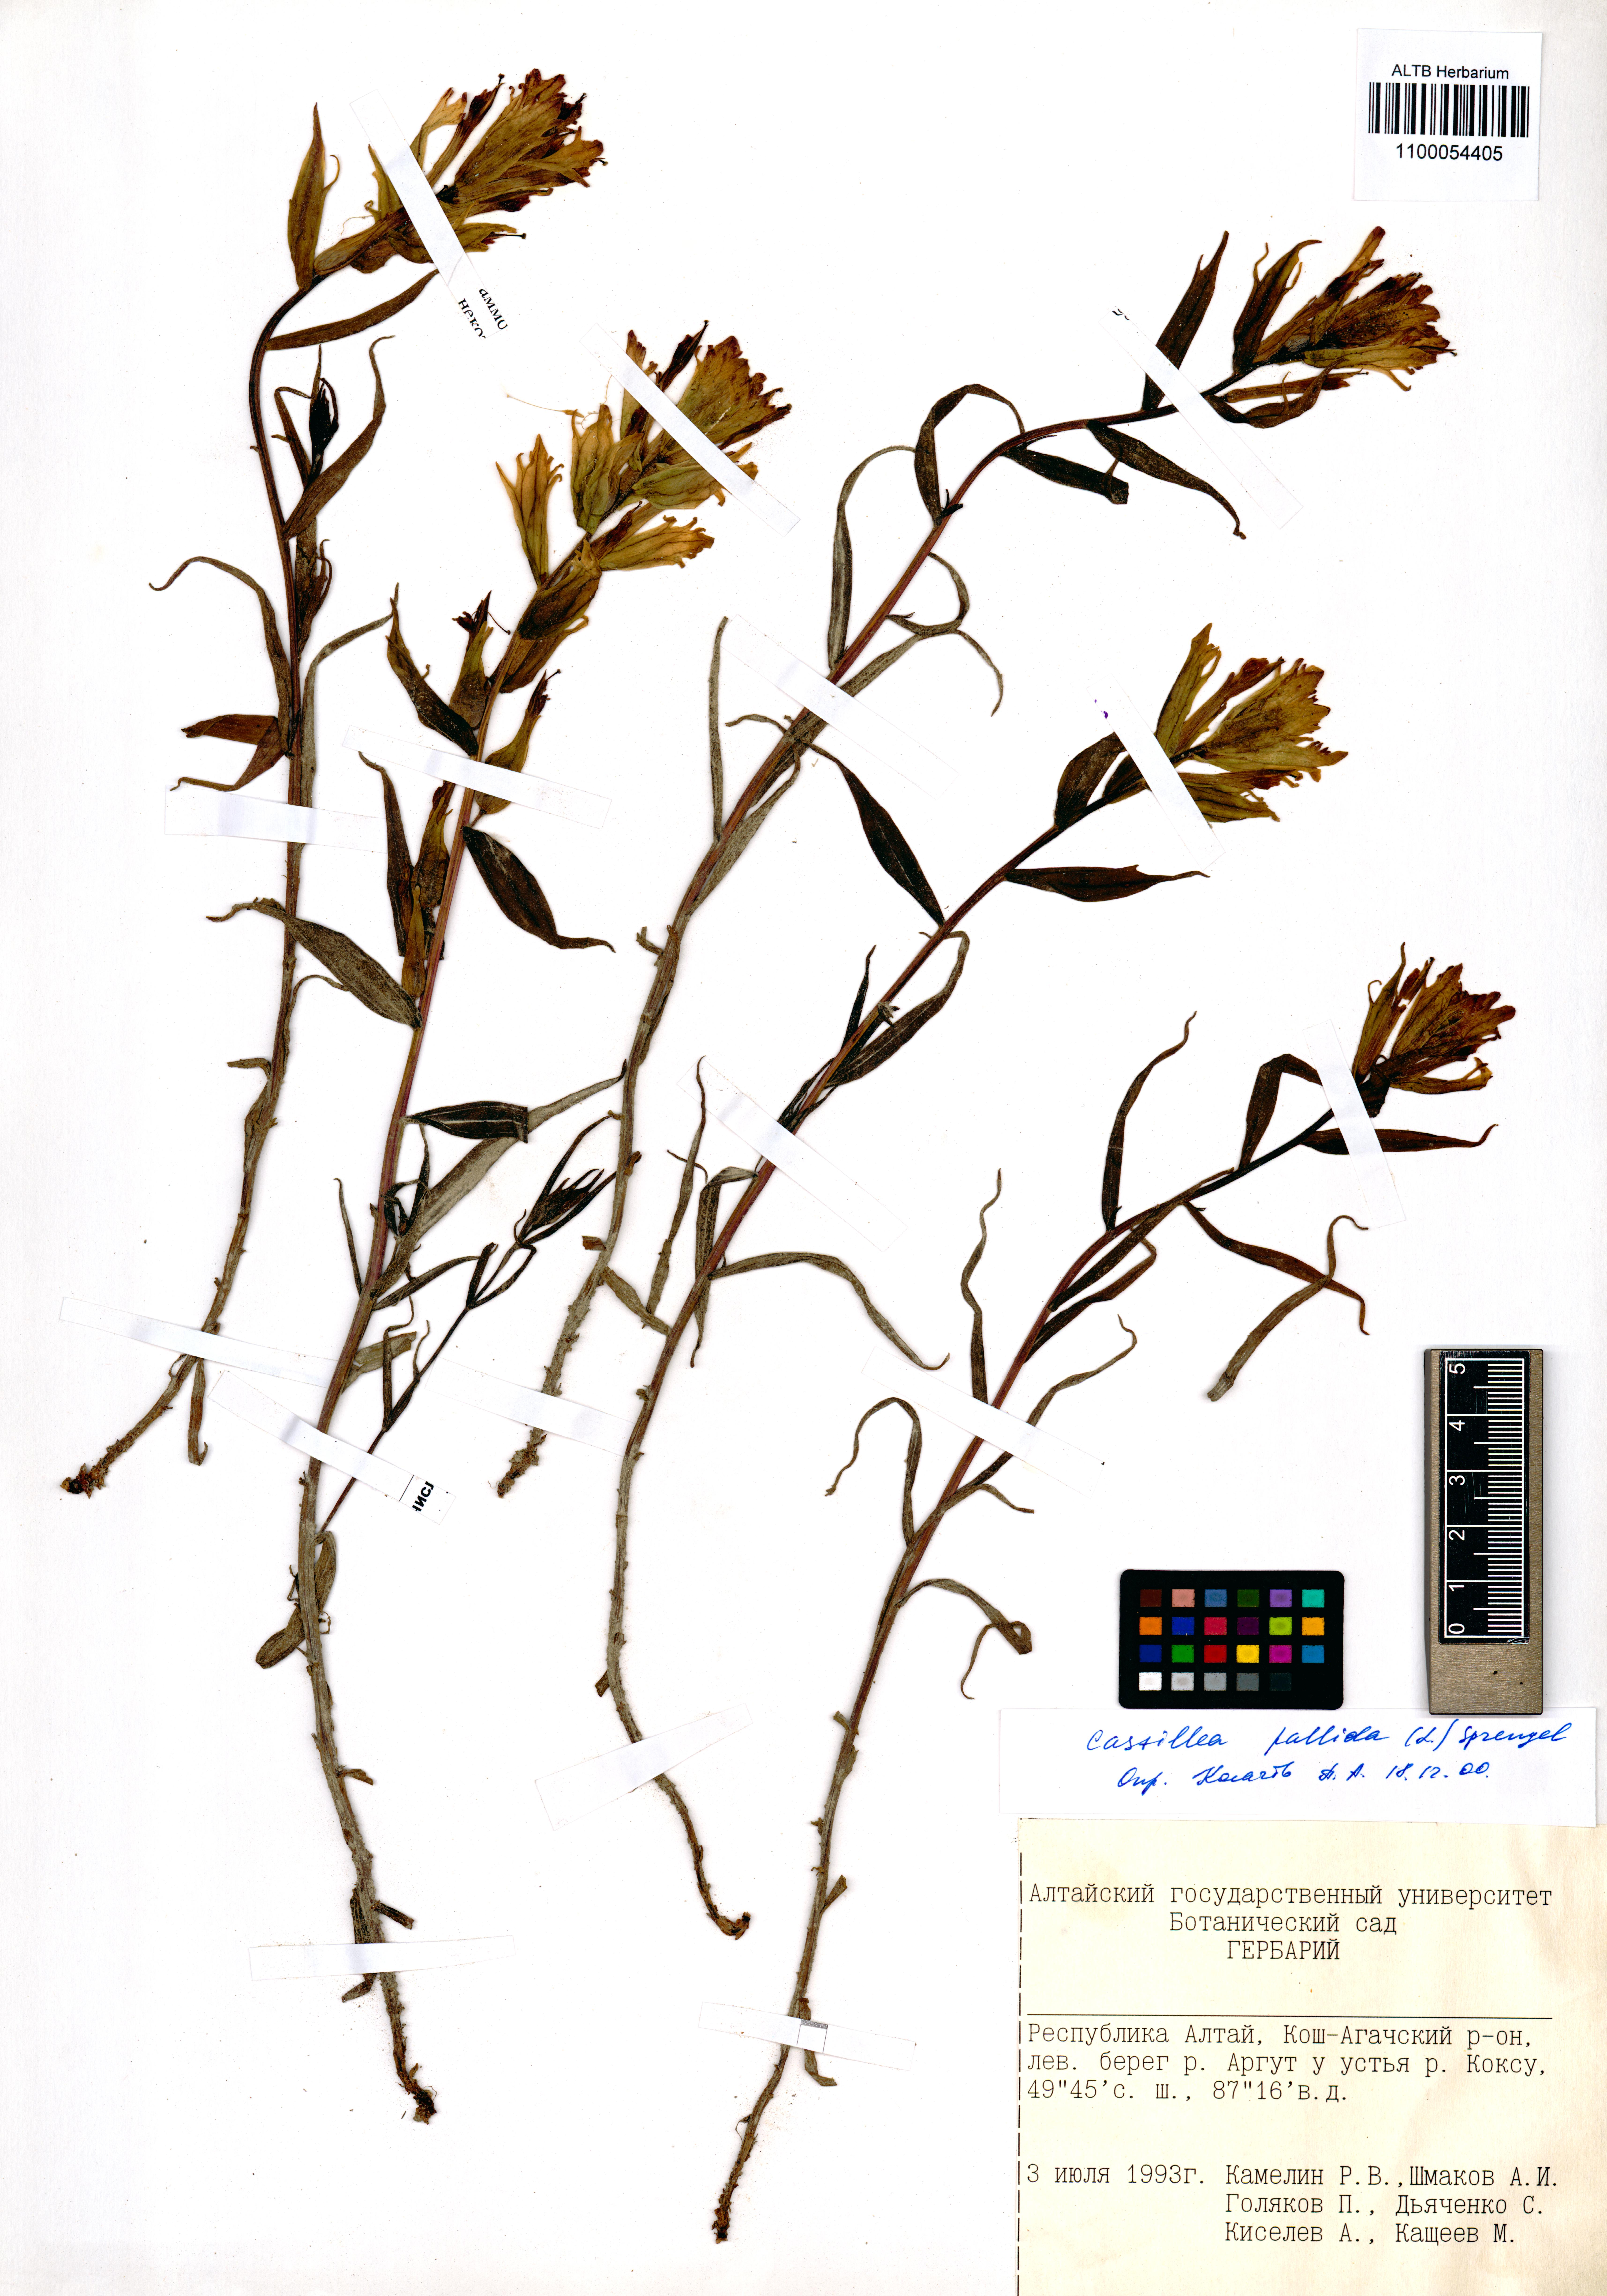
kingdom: Plantae
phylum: Tracheophyta
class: Magnoliopsida
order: Lamiales
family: Orobanchaceae
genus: Castilleja
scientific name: Castilleja pallida
